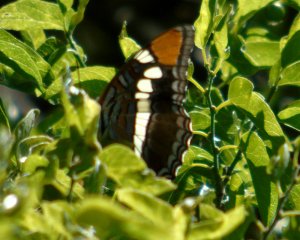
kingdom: Animalia
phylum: Arthropoda
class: Insecta
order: Lepidoptera
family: Nymphalidae
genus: Limenitis
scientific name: Limenitis bredowii
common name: Arizona Sister
